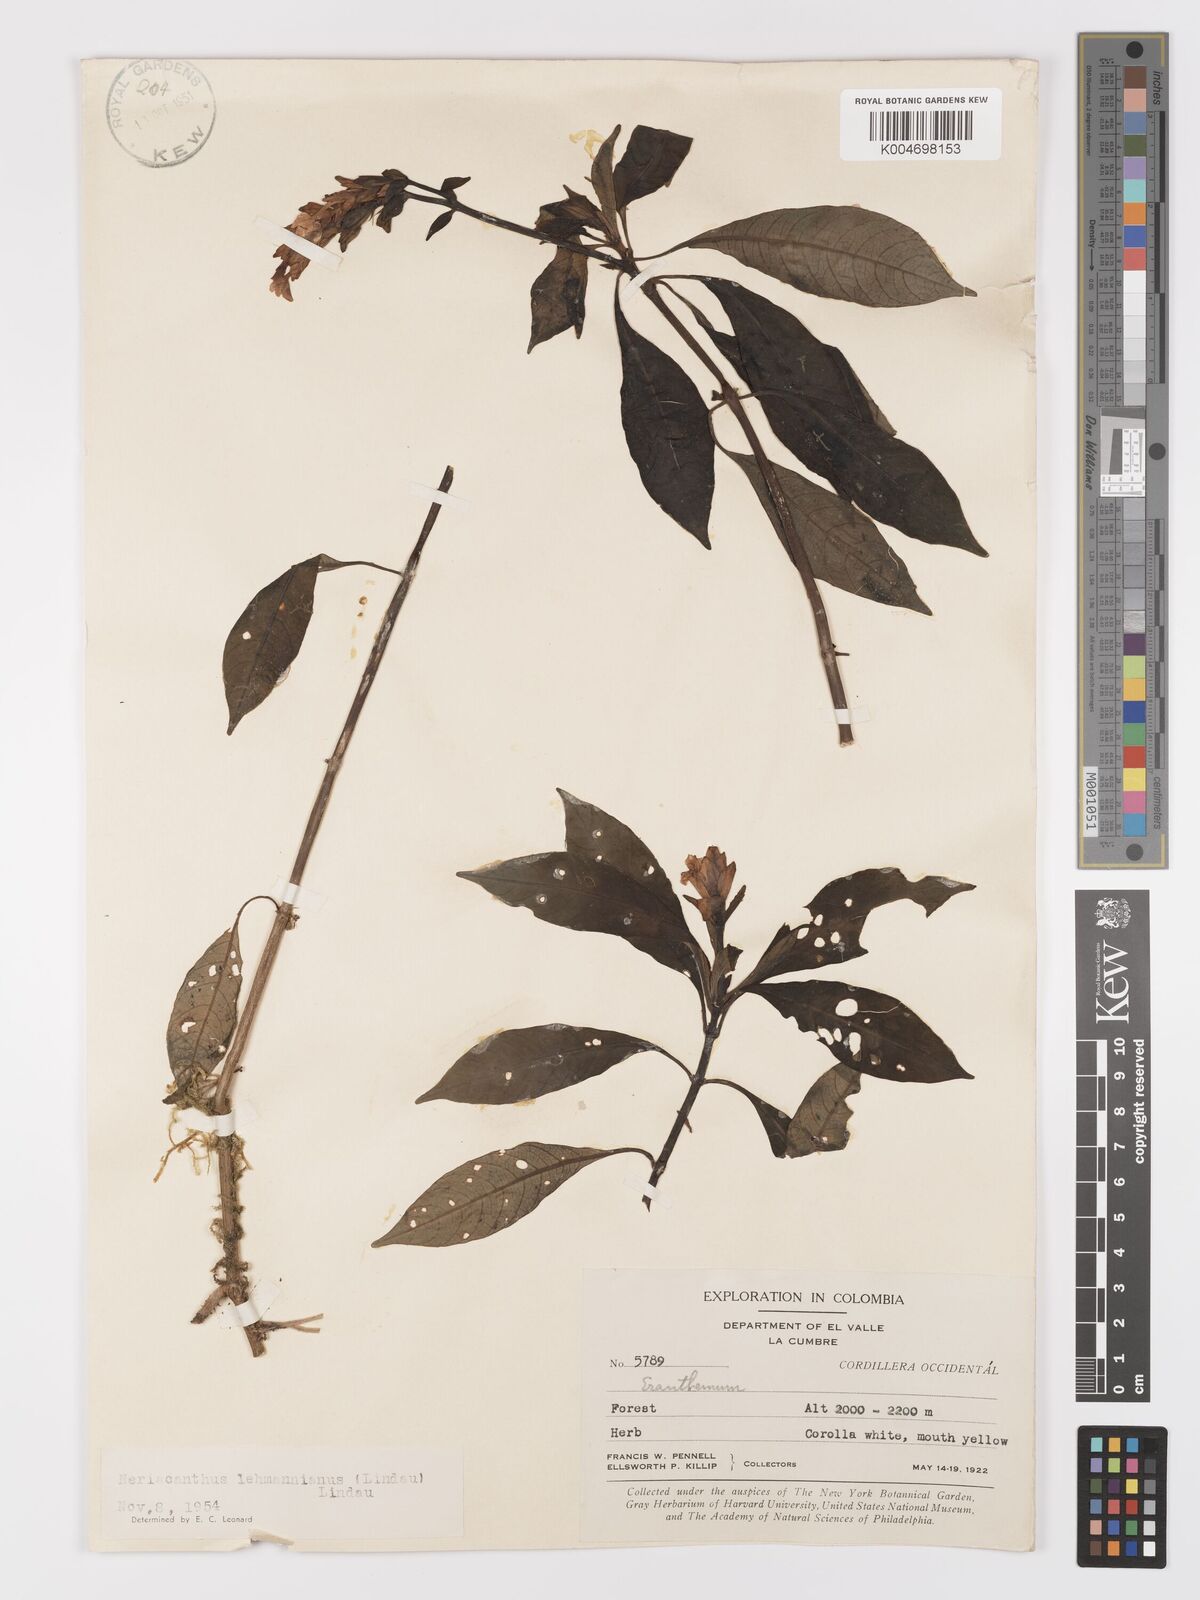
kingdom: Plantae
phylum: Tracheophyta
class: Magnoliopsida
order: Lamiales
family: Acanthaceae
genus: Neriacanthus
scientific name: Neriacanthus lehmannianus
